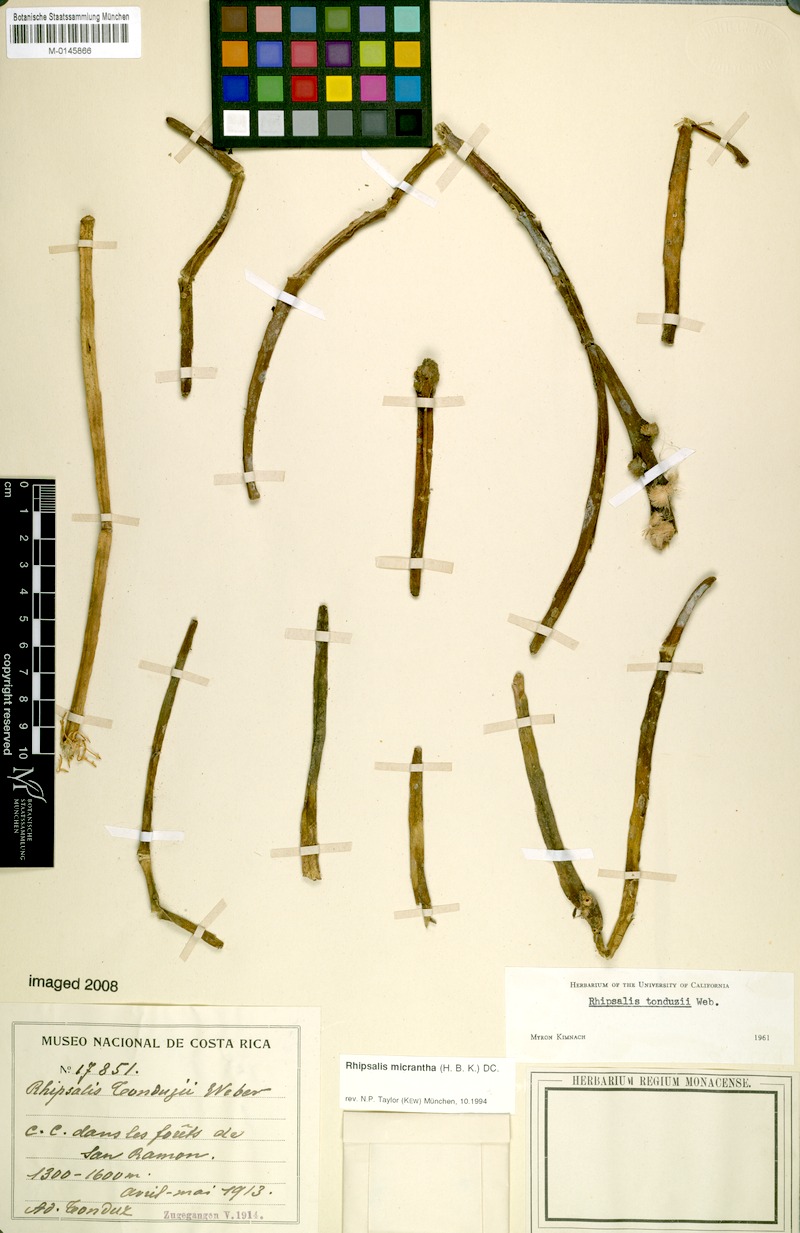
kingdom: Plantae
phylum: Tracheophyta
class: Magnoliopsida
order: Caryophyllales
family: Cactaceae
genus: Rhipsalis
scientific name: Rhipsalis micrantha
